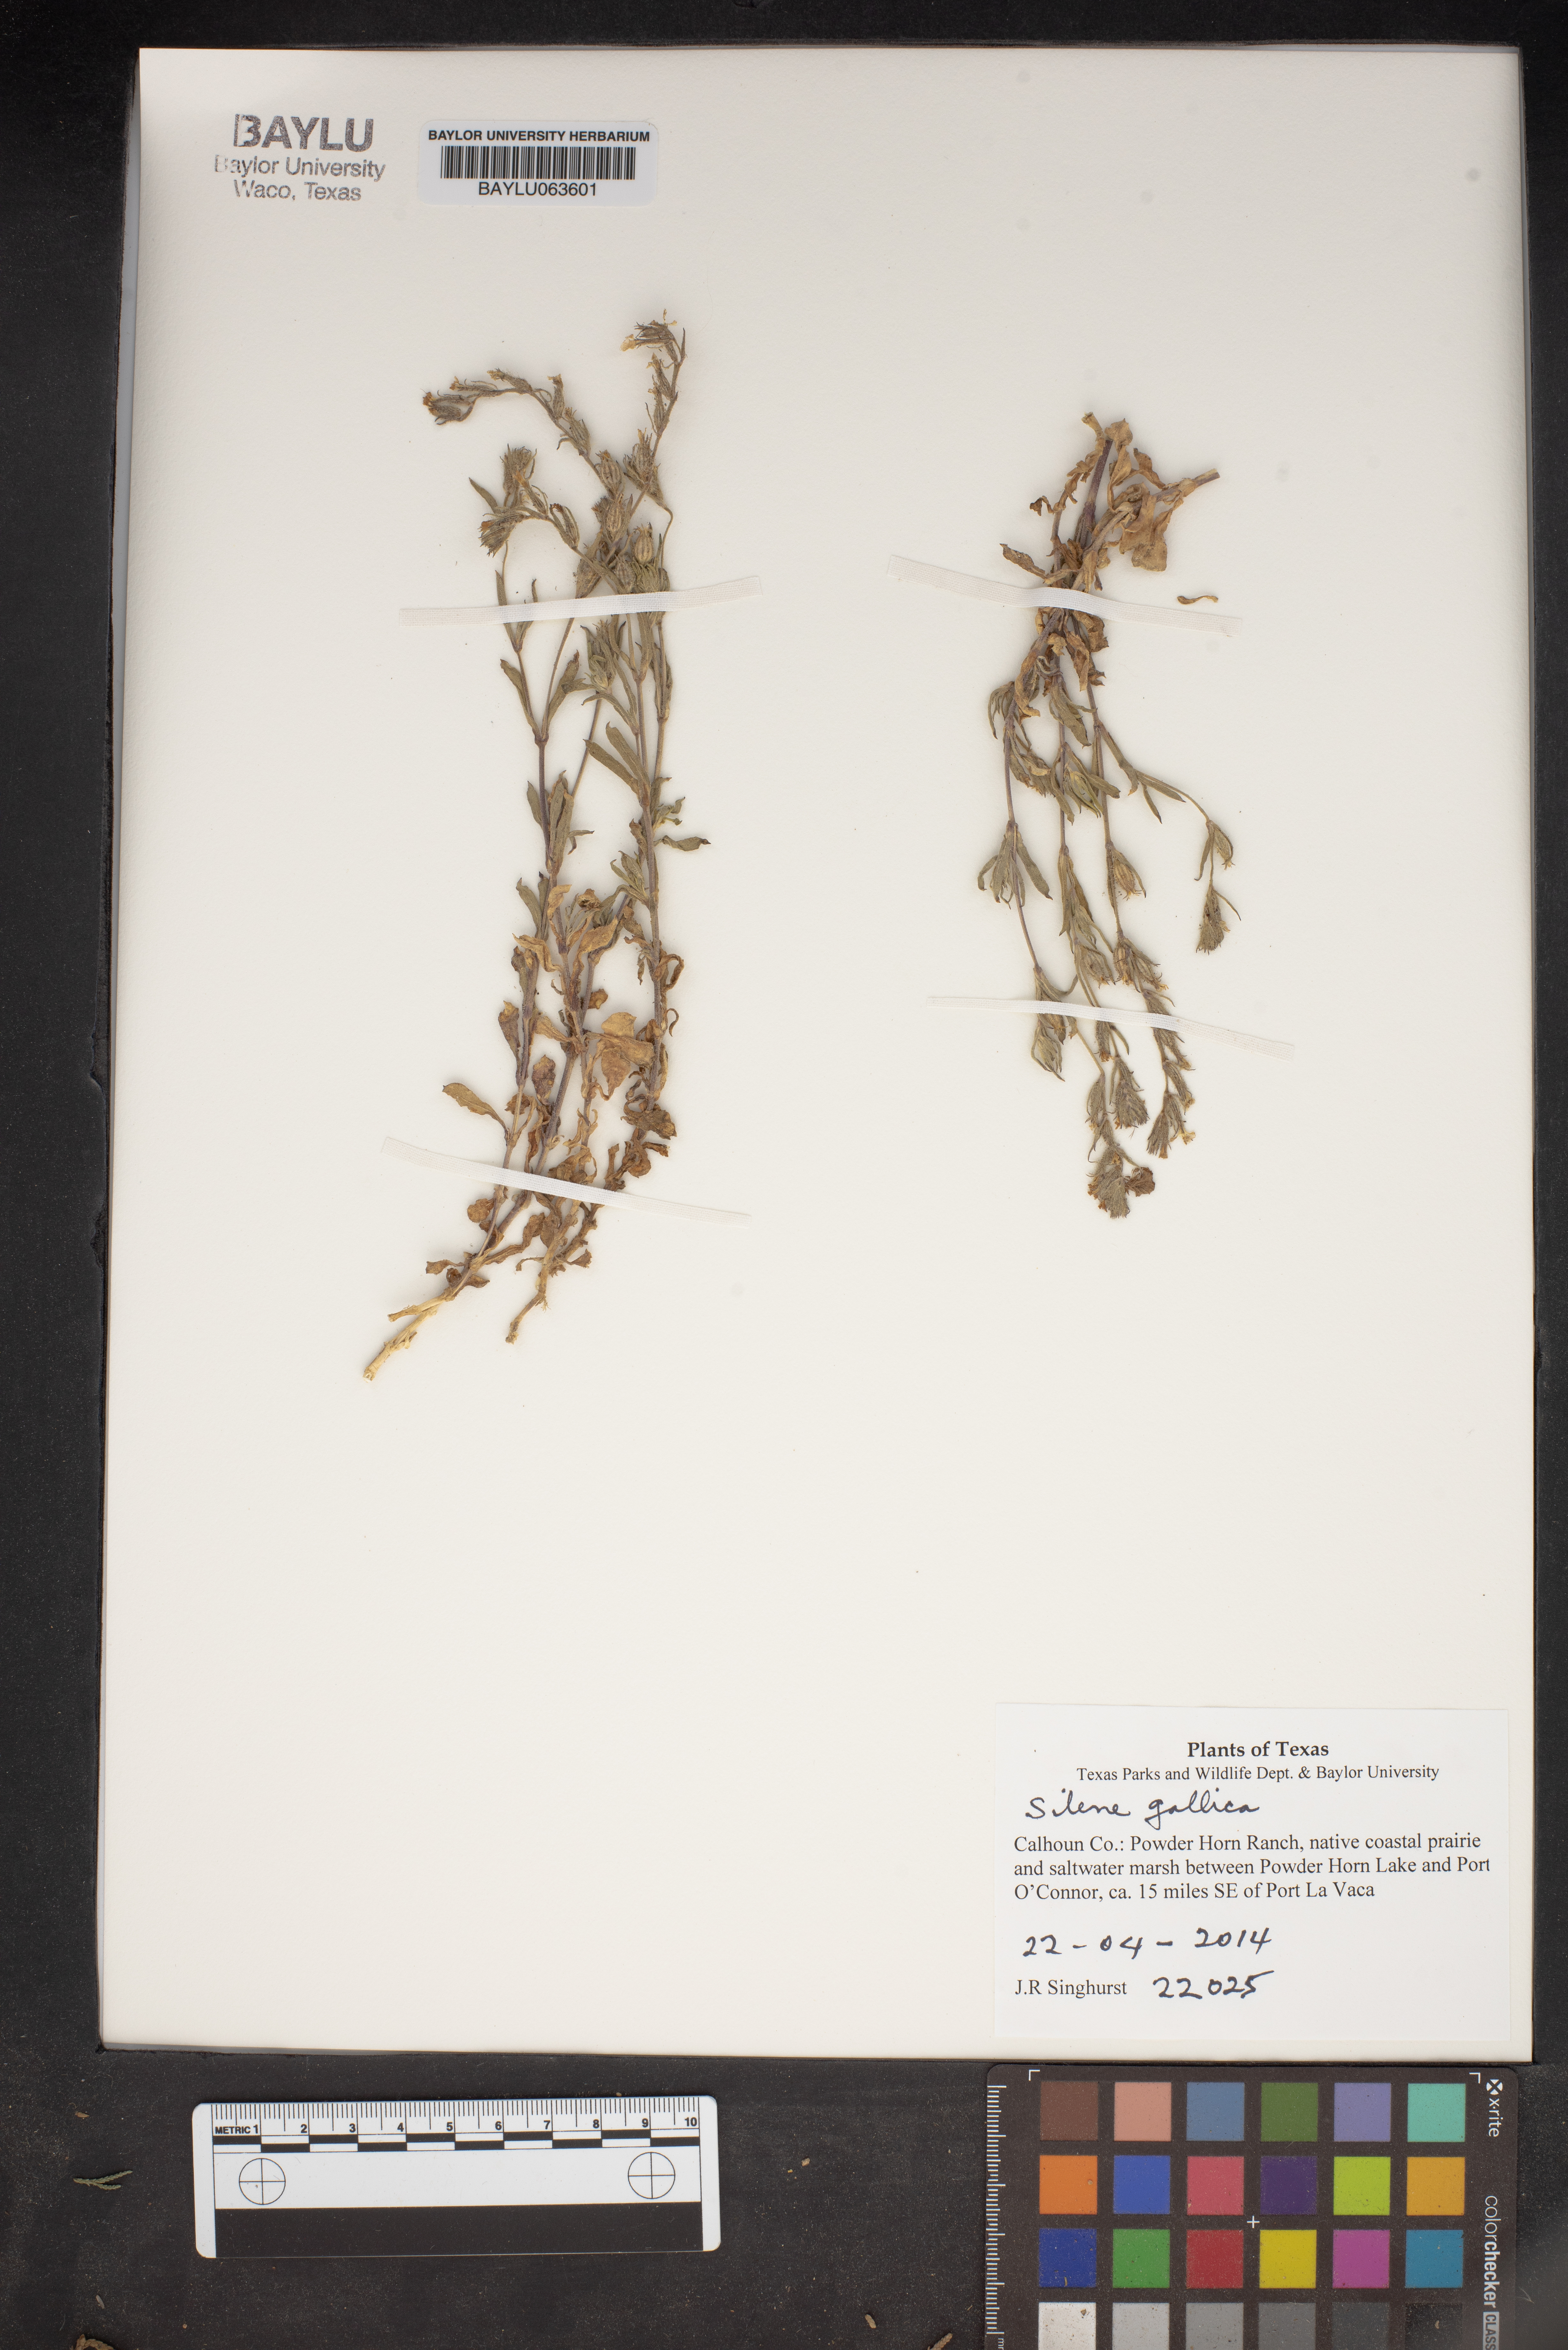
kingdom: Plantae
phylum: Tracheophyta
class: Magnoliopsida
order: Caryophyllales
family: Caryophyllaceae
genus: Silene
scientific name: Silene gallica
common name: Small-flowered catchfly
